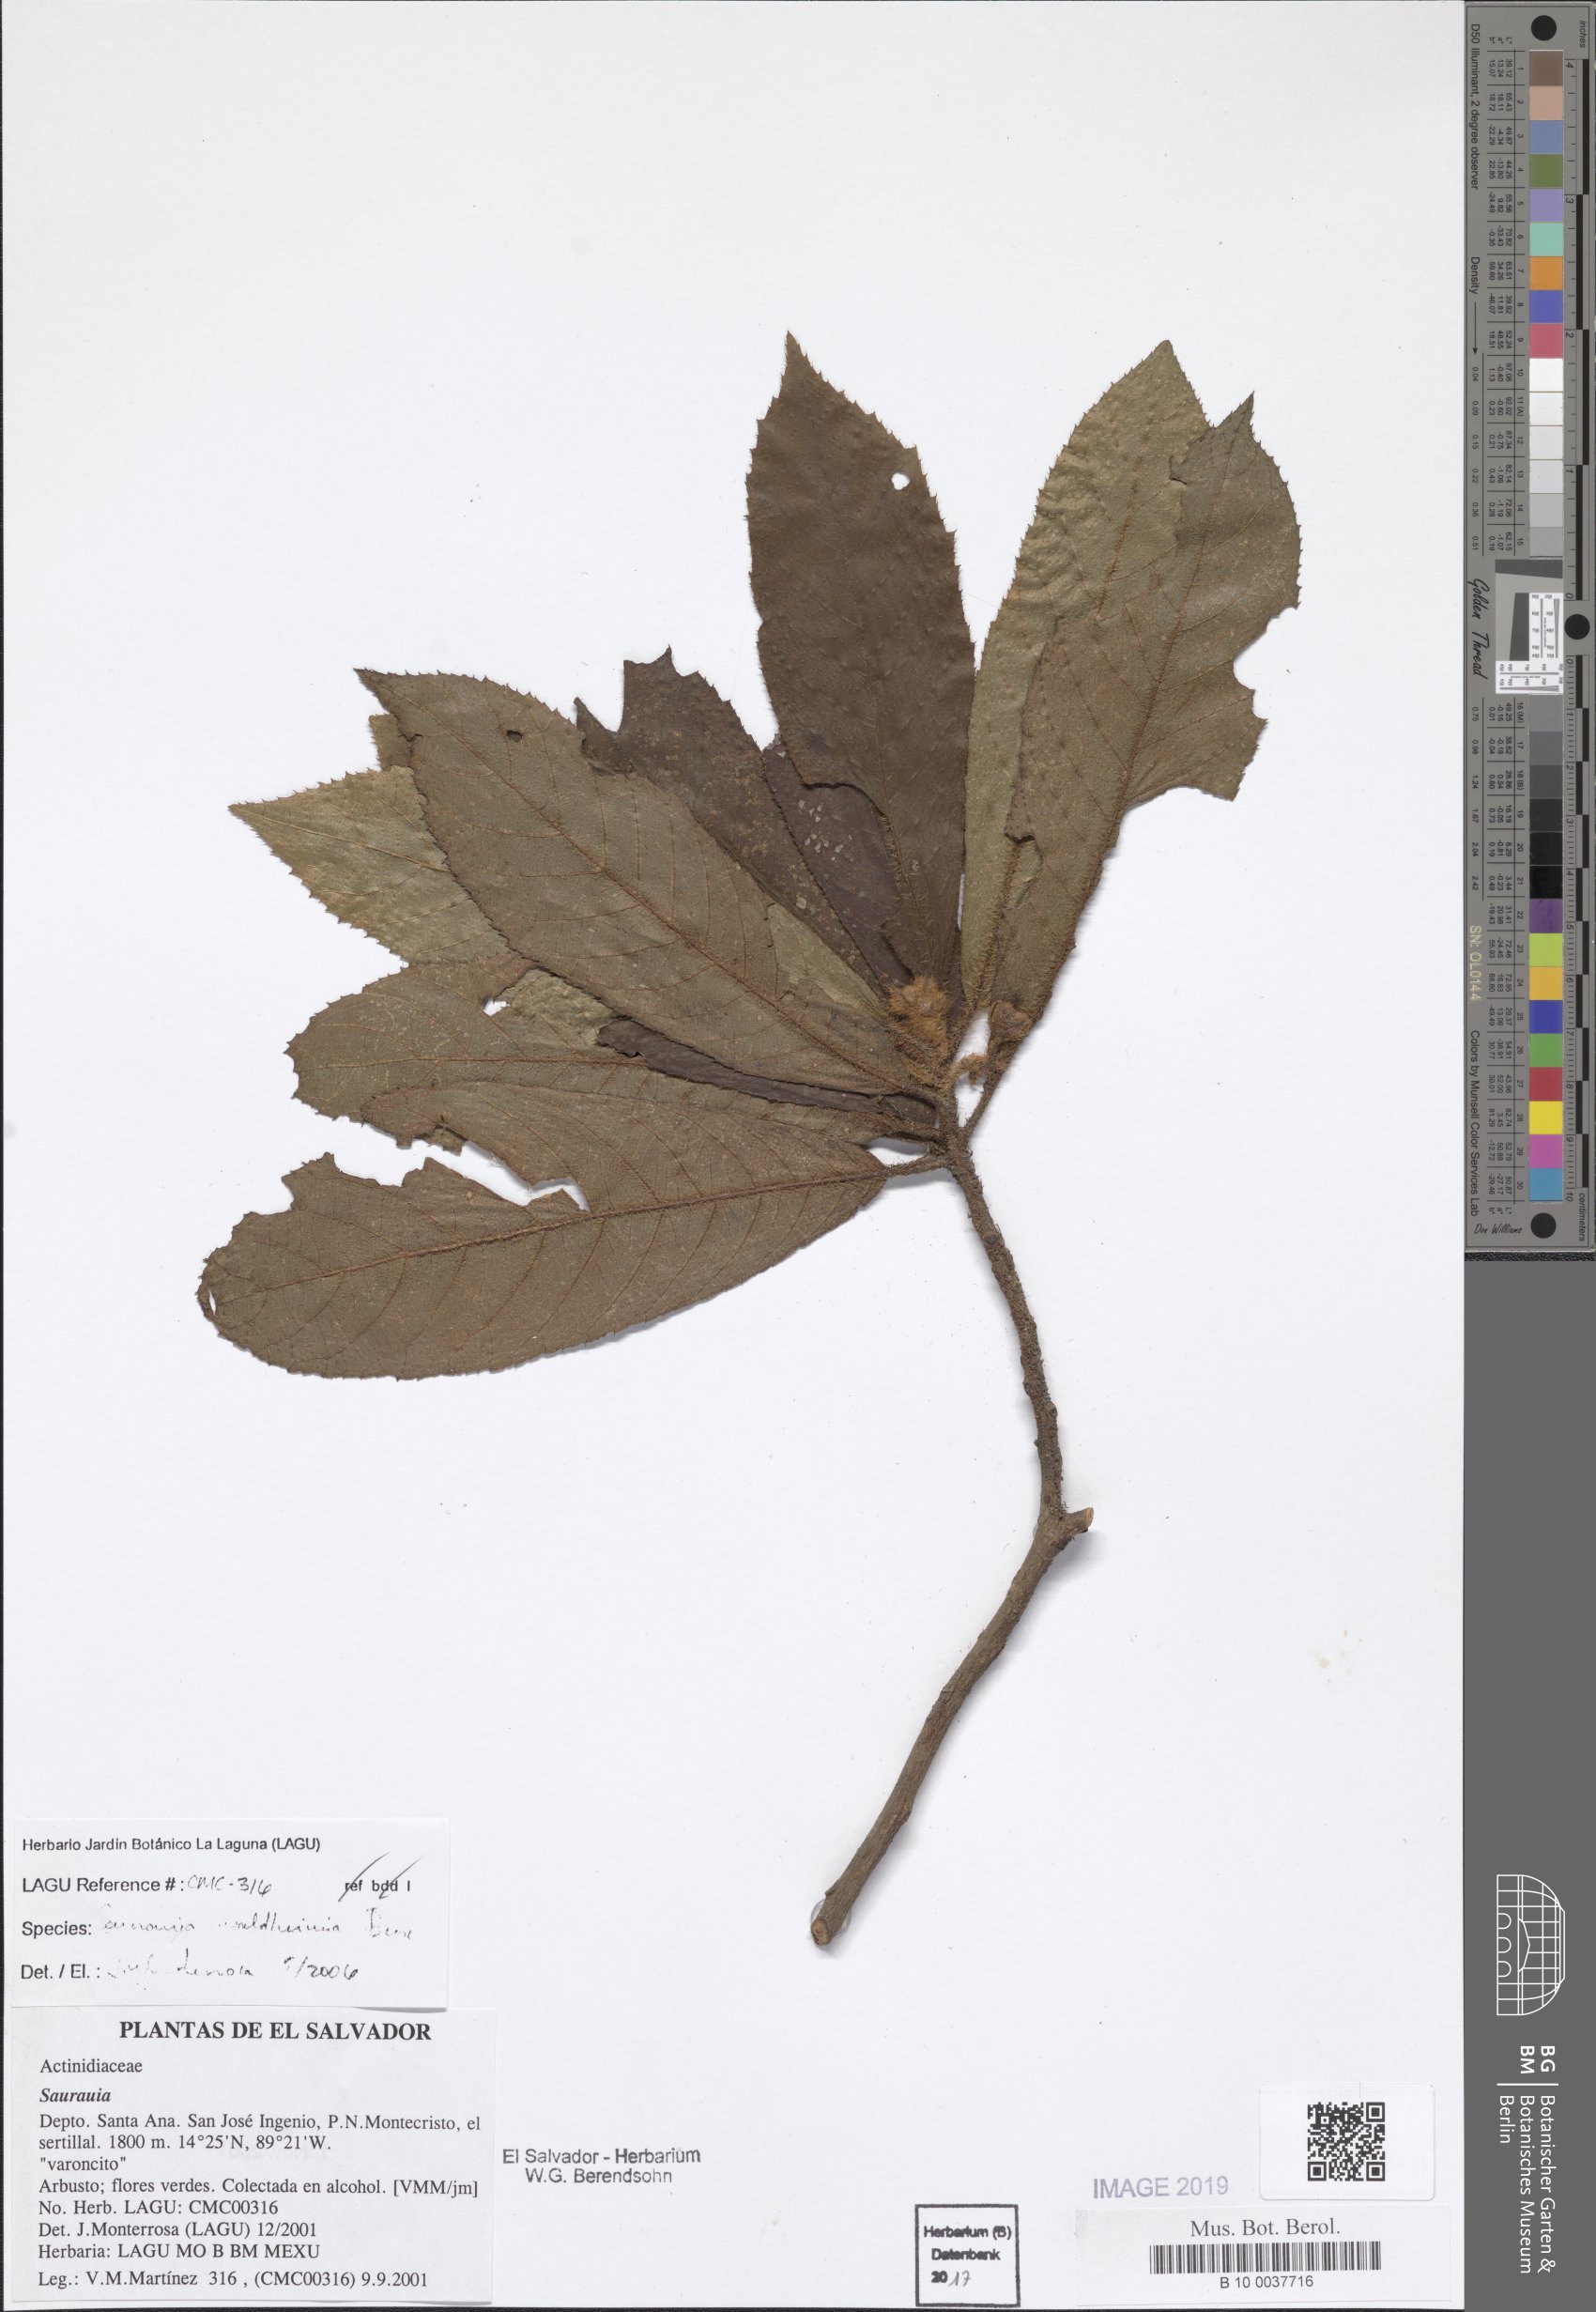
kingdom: Plantae
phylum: Tracheophyta
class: Magnoliopsida
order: Ericales
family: Actinidiaceae
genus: Saurauia
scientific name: Saurauia waldheimii
